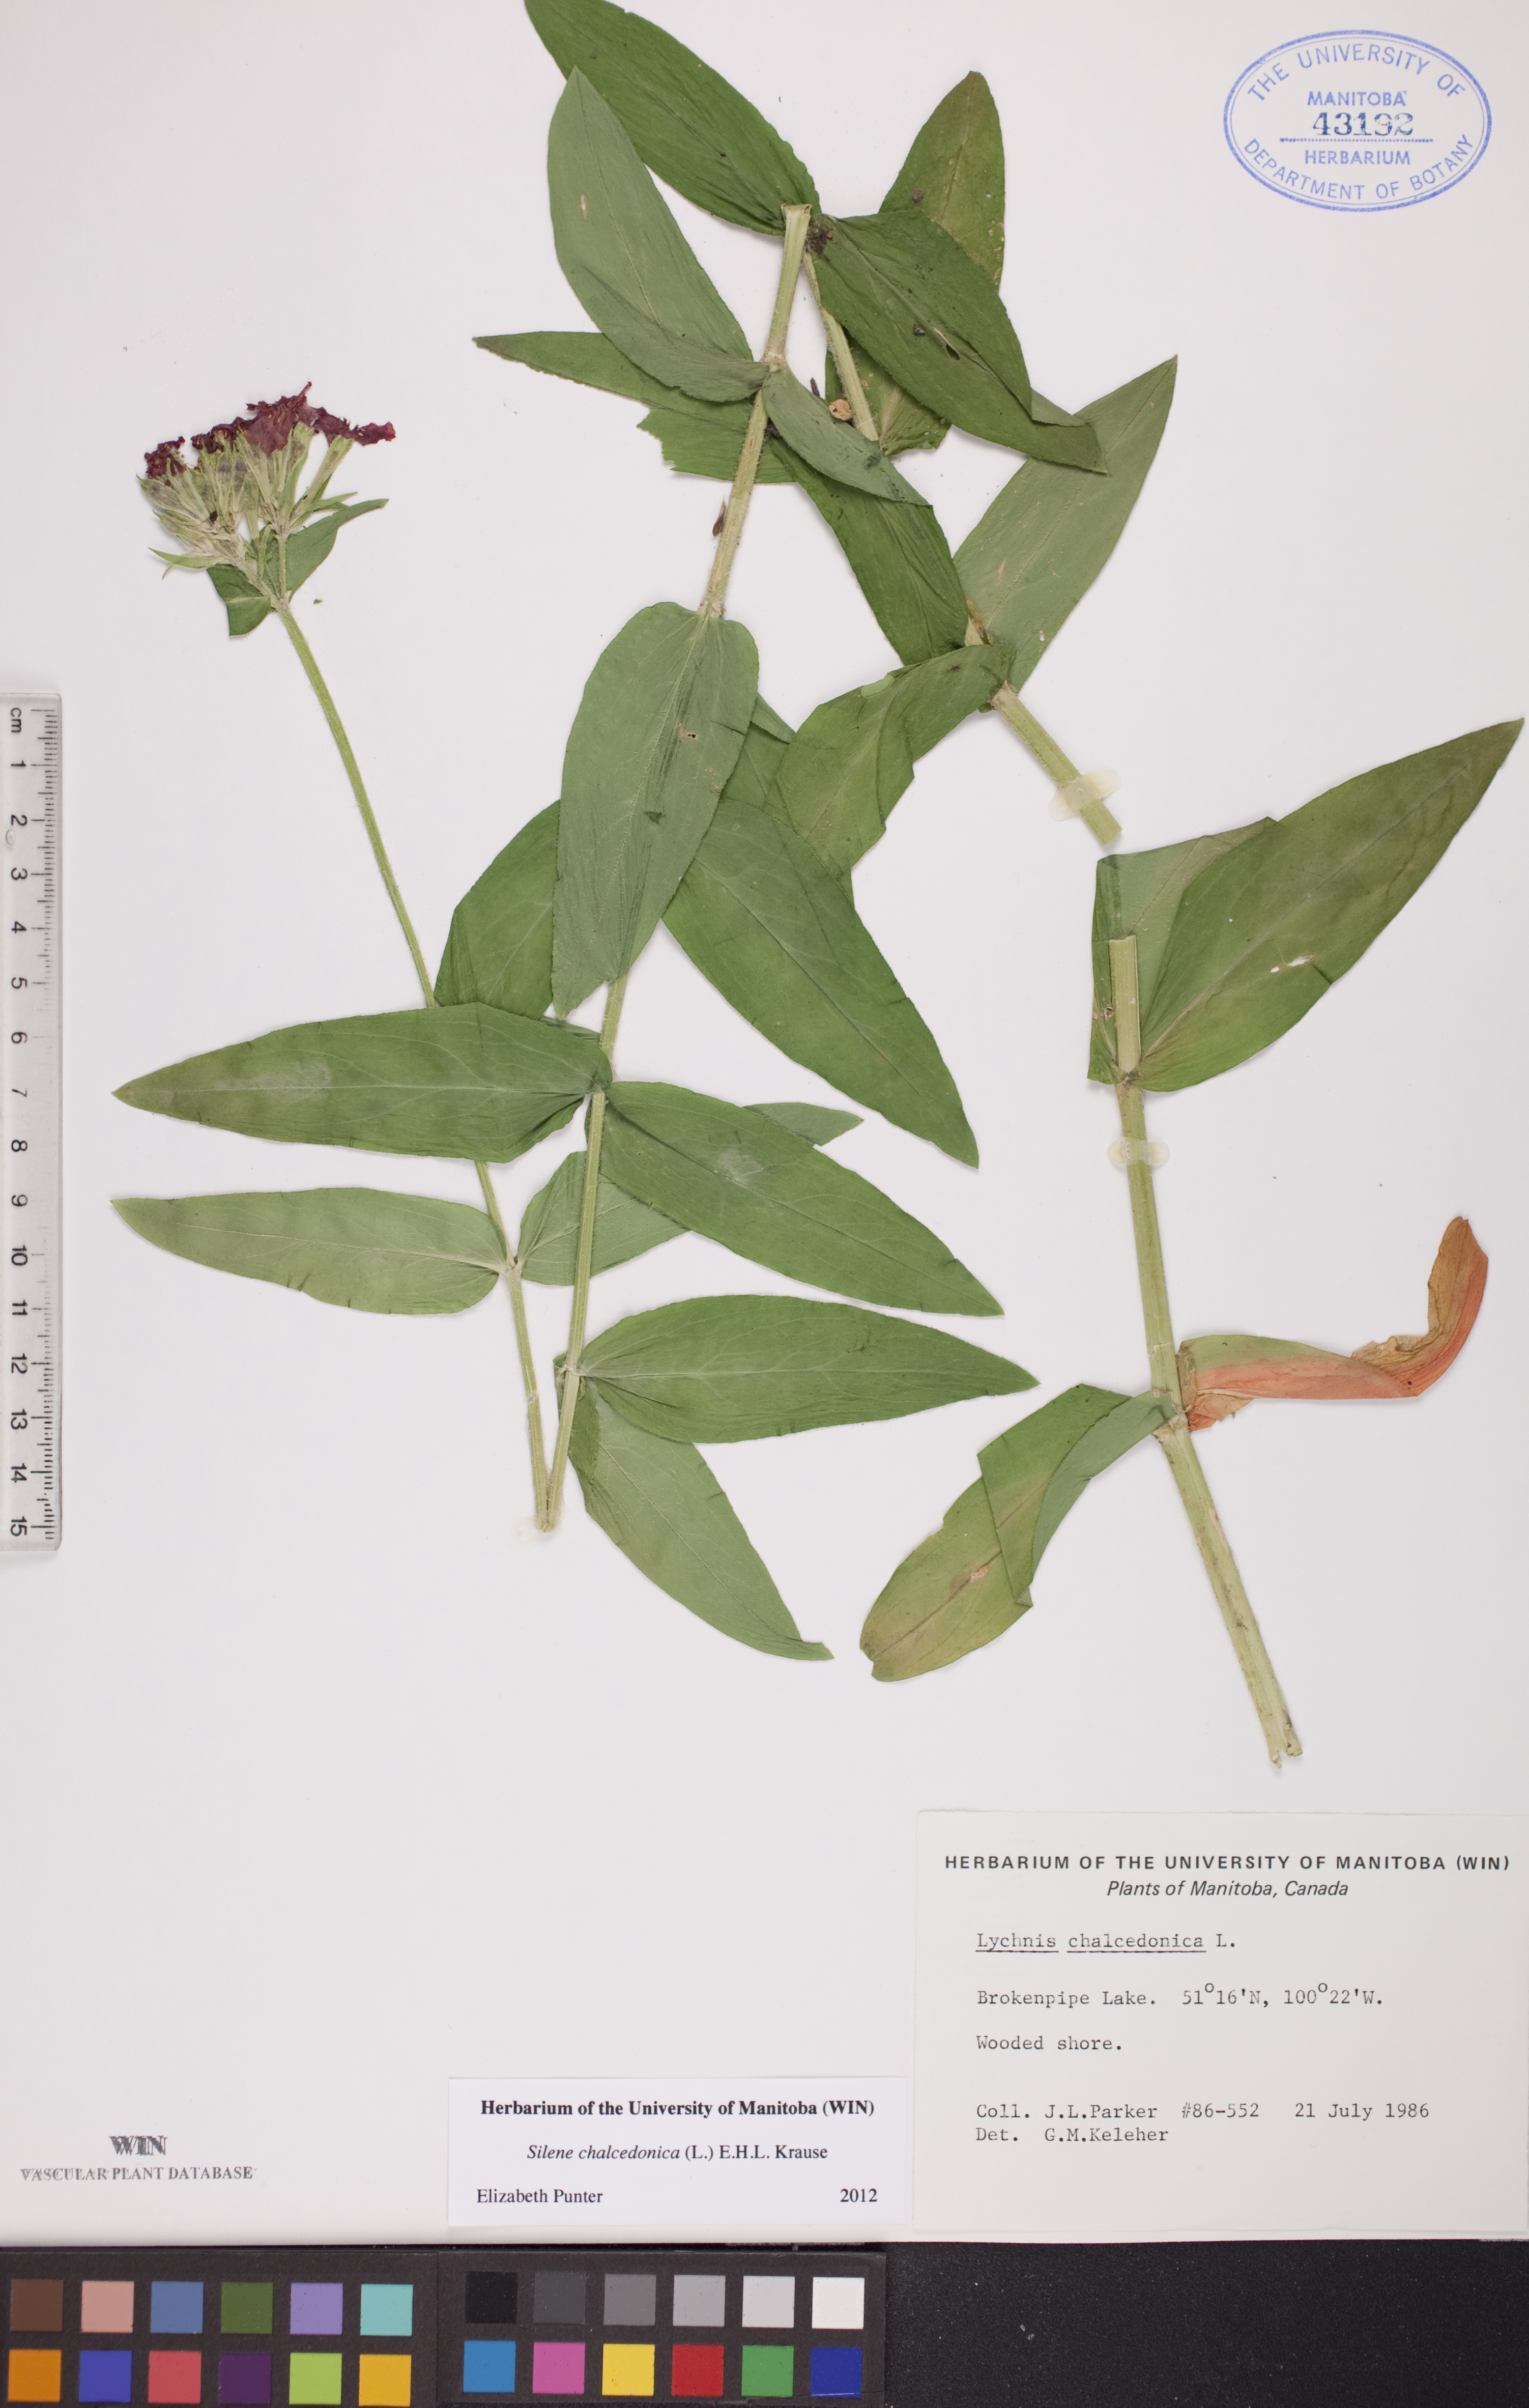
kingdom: Plantae
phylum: Tracheophyta
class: Magnoliopsida
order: Caryophyllales
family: Caryophyllaceae
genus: Silene
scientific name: Silene chalcedonica
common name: Maltese-cross
